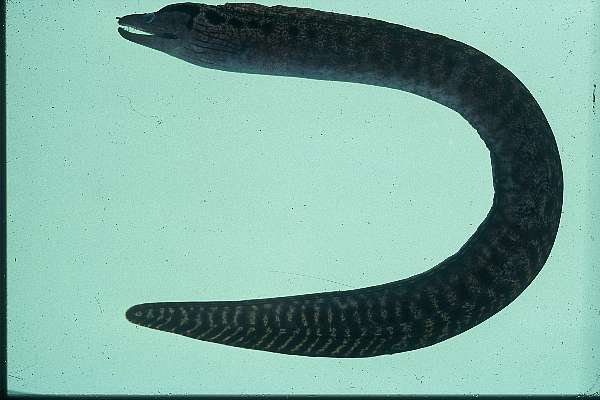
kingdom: Animalia
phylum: Chordata
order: Anguilliformes
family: Muraenidae
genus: Gymnothorax
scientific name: Gymnothorax margaritophorus
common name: Blotch-necked moray
